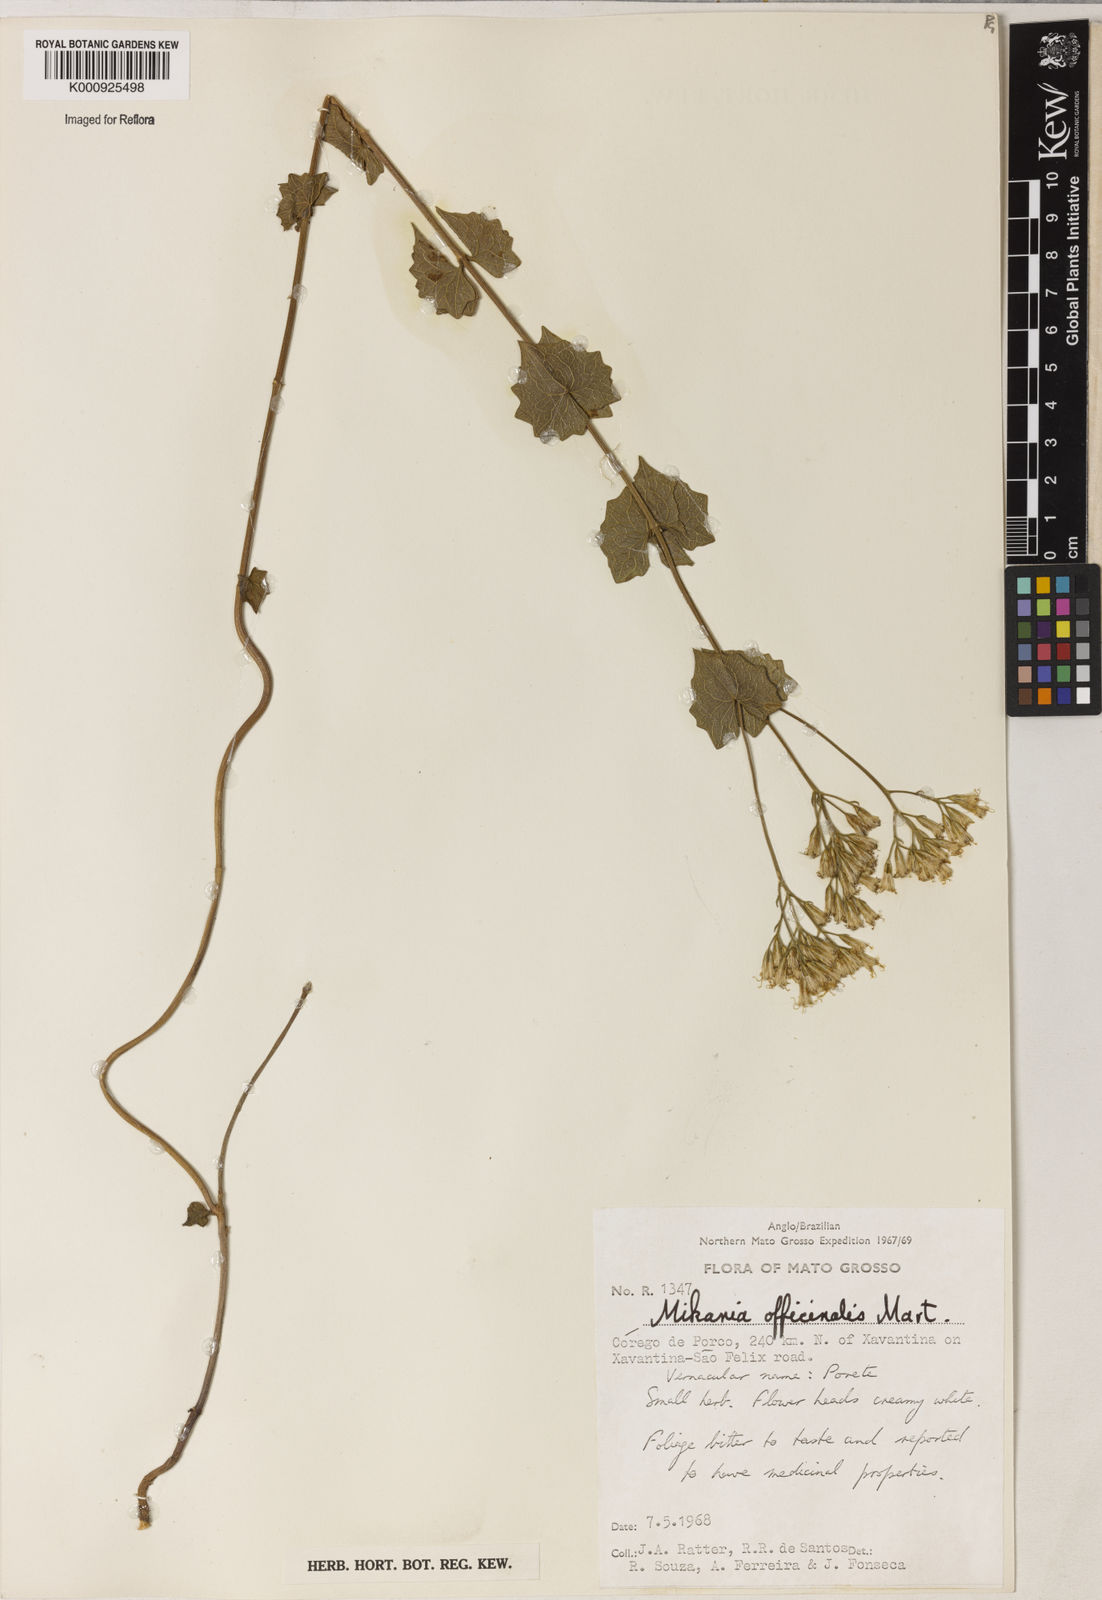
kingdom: Plantae
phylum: Tracheophyta
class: Magnoliopsida
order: Asterales
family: Asteraceae
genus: Mikania
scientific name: Mikania officinalis
